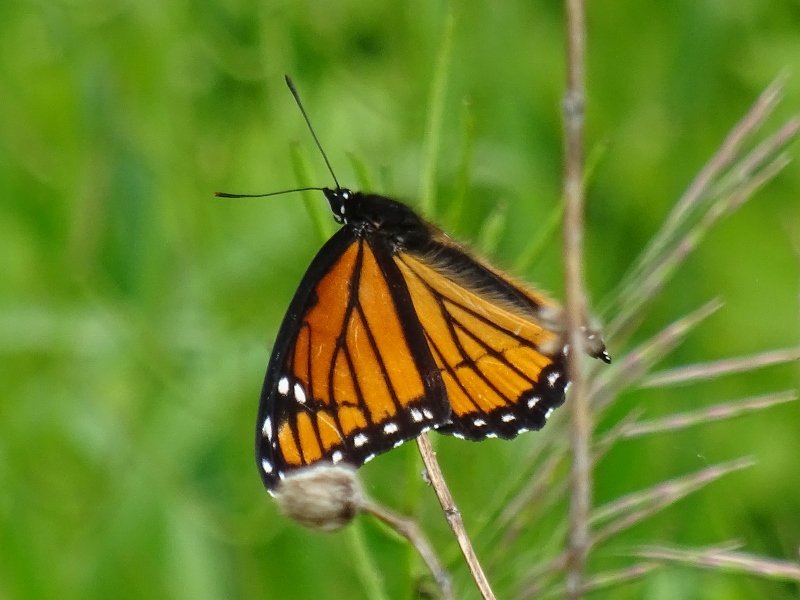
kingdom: Animalia
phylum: Arthropoda
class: Insecta
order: Lepidoptera
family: Nymphalidae
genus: Limenitis
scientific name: Limenitis archippus
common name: Viceroy
